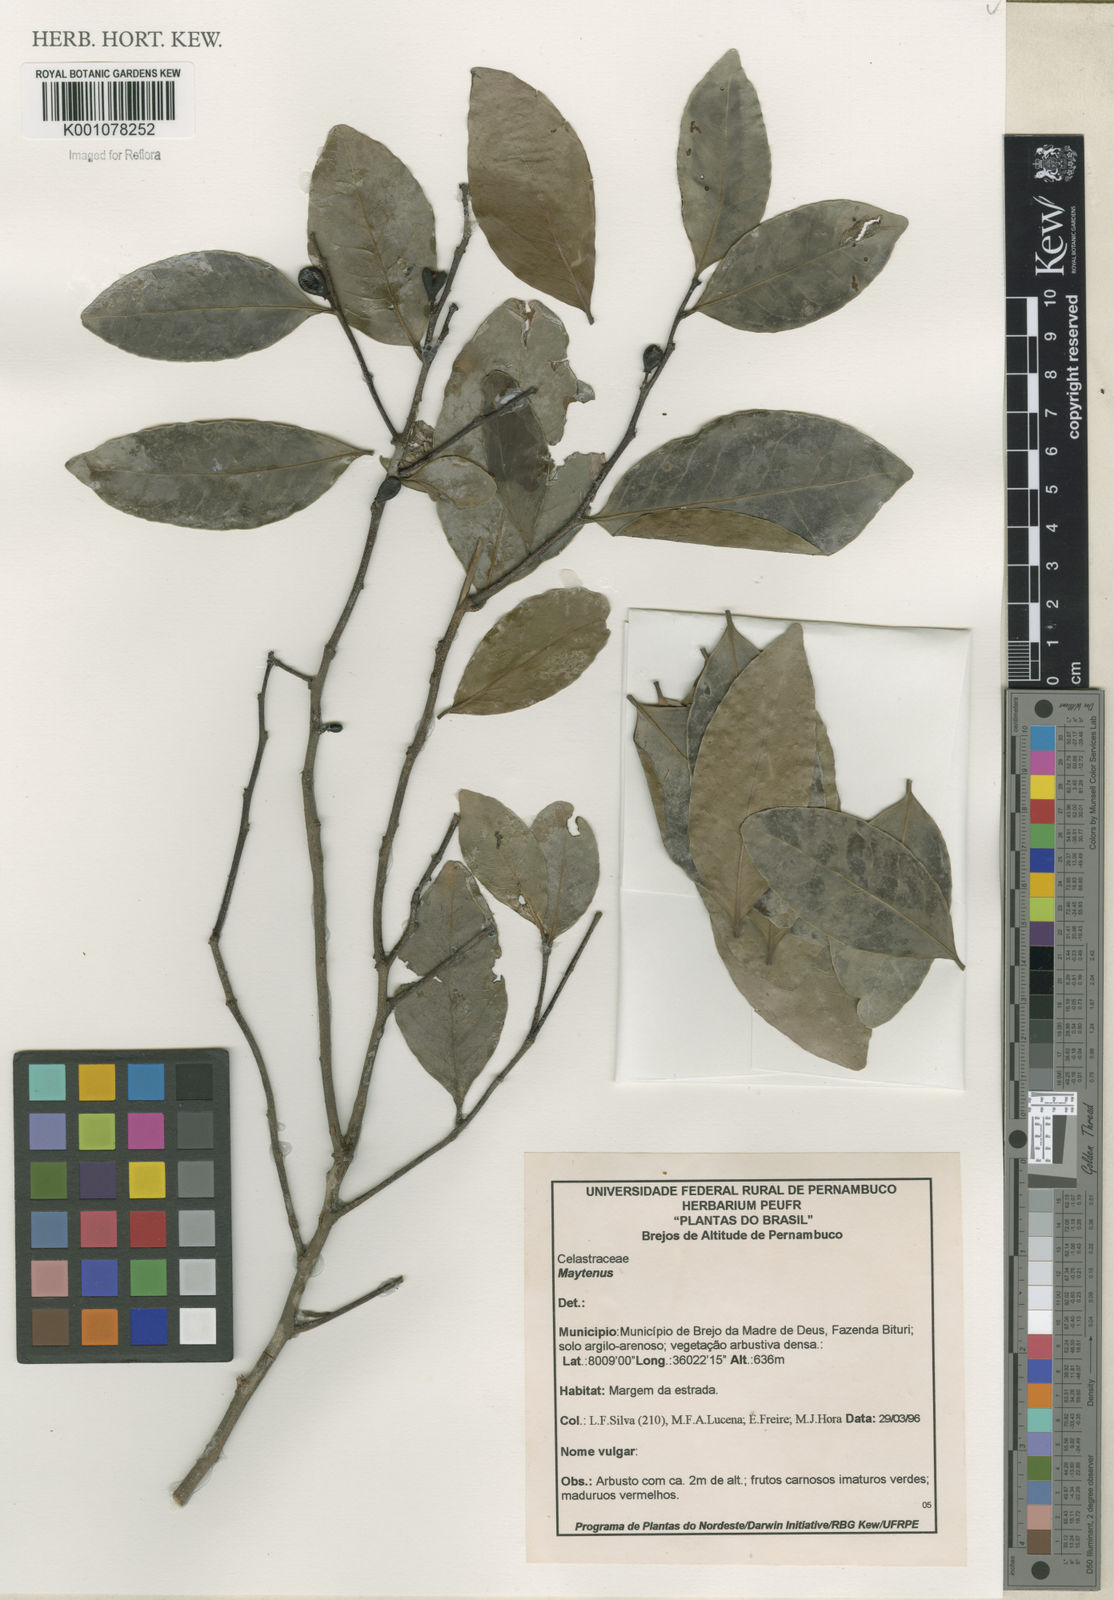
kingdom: Plantae
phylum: Tracheophyta
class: Magnoliopsida
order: Celastrales
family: Celastraceae
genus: Maytenus
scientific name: Maytenus
